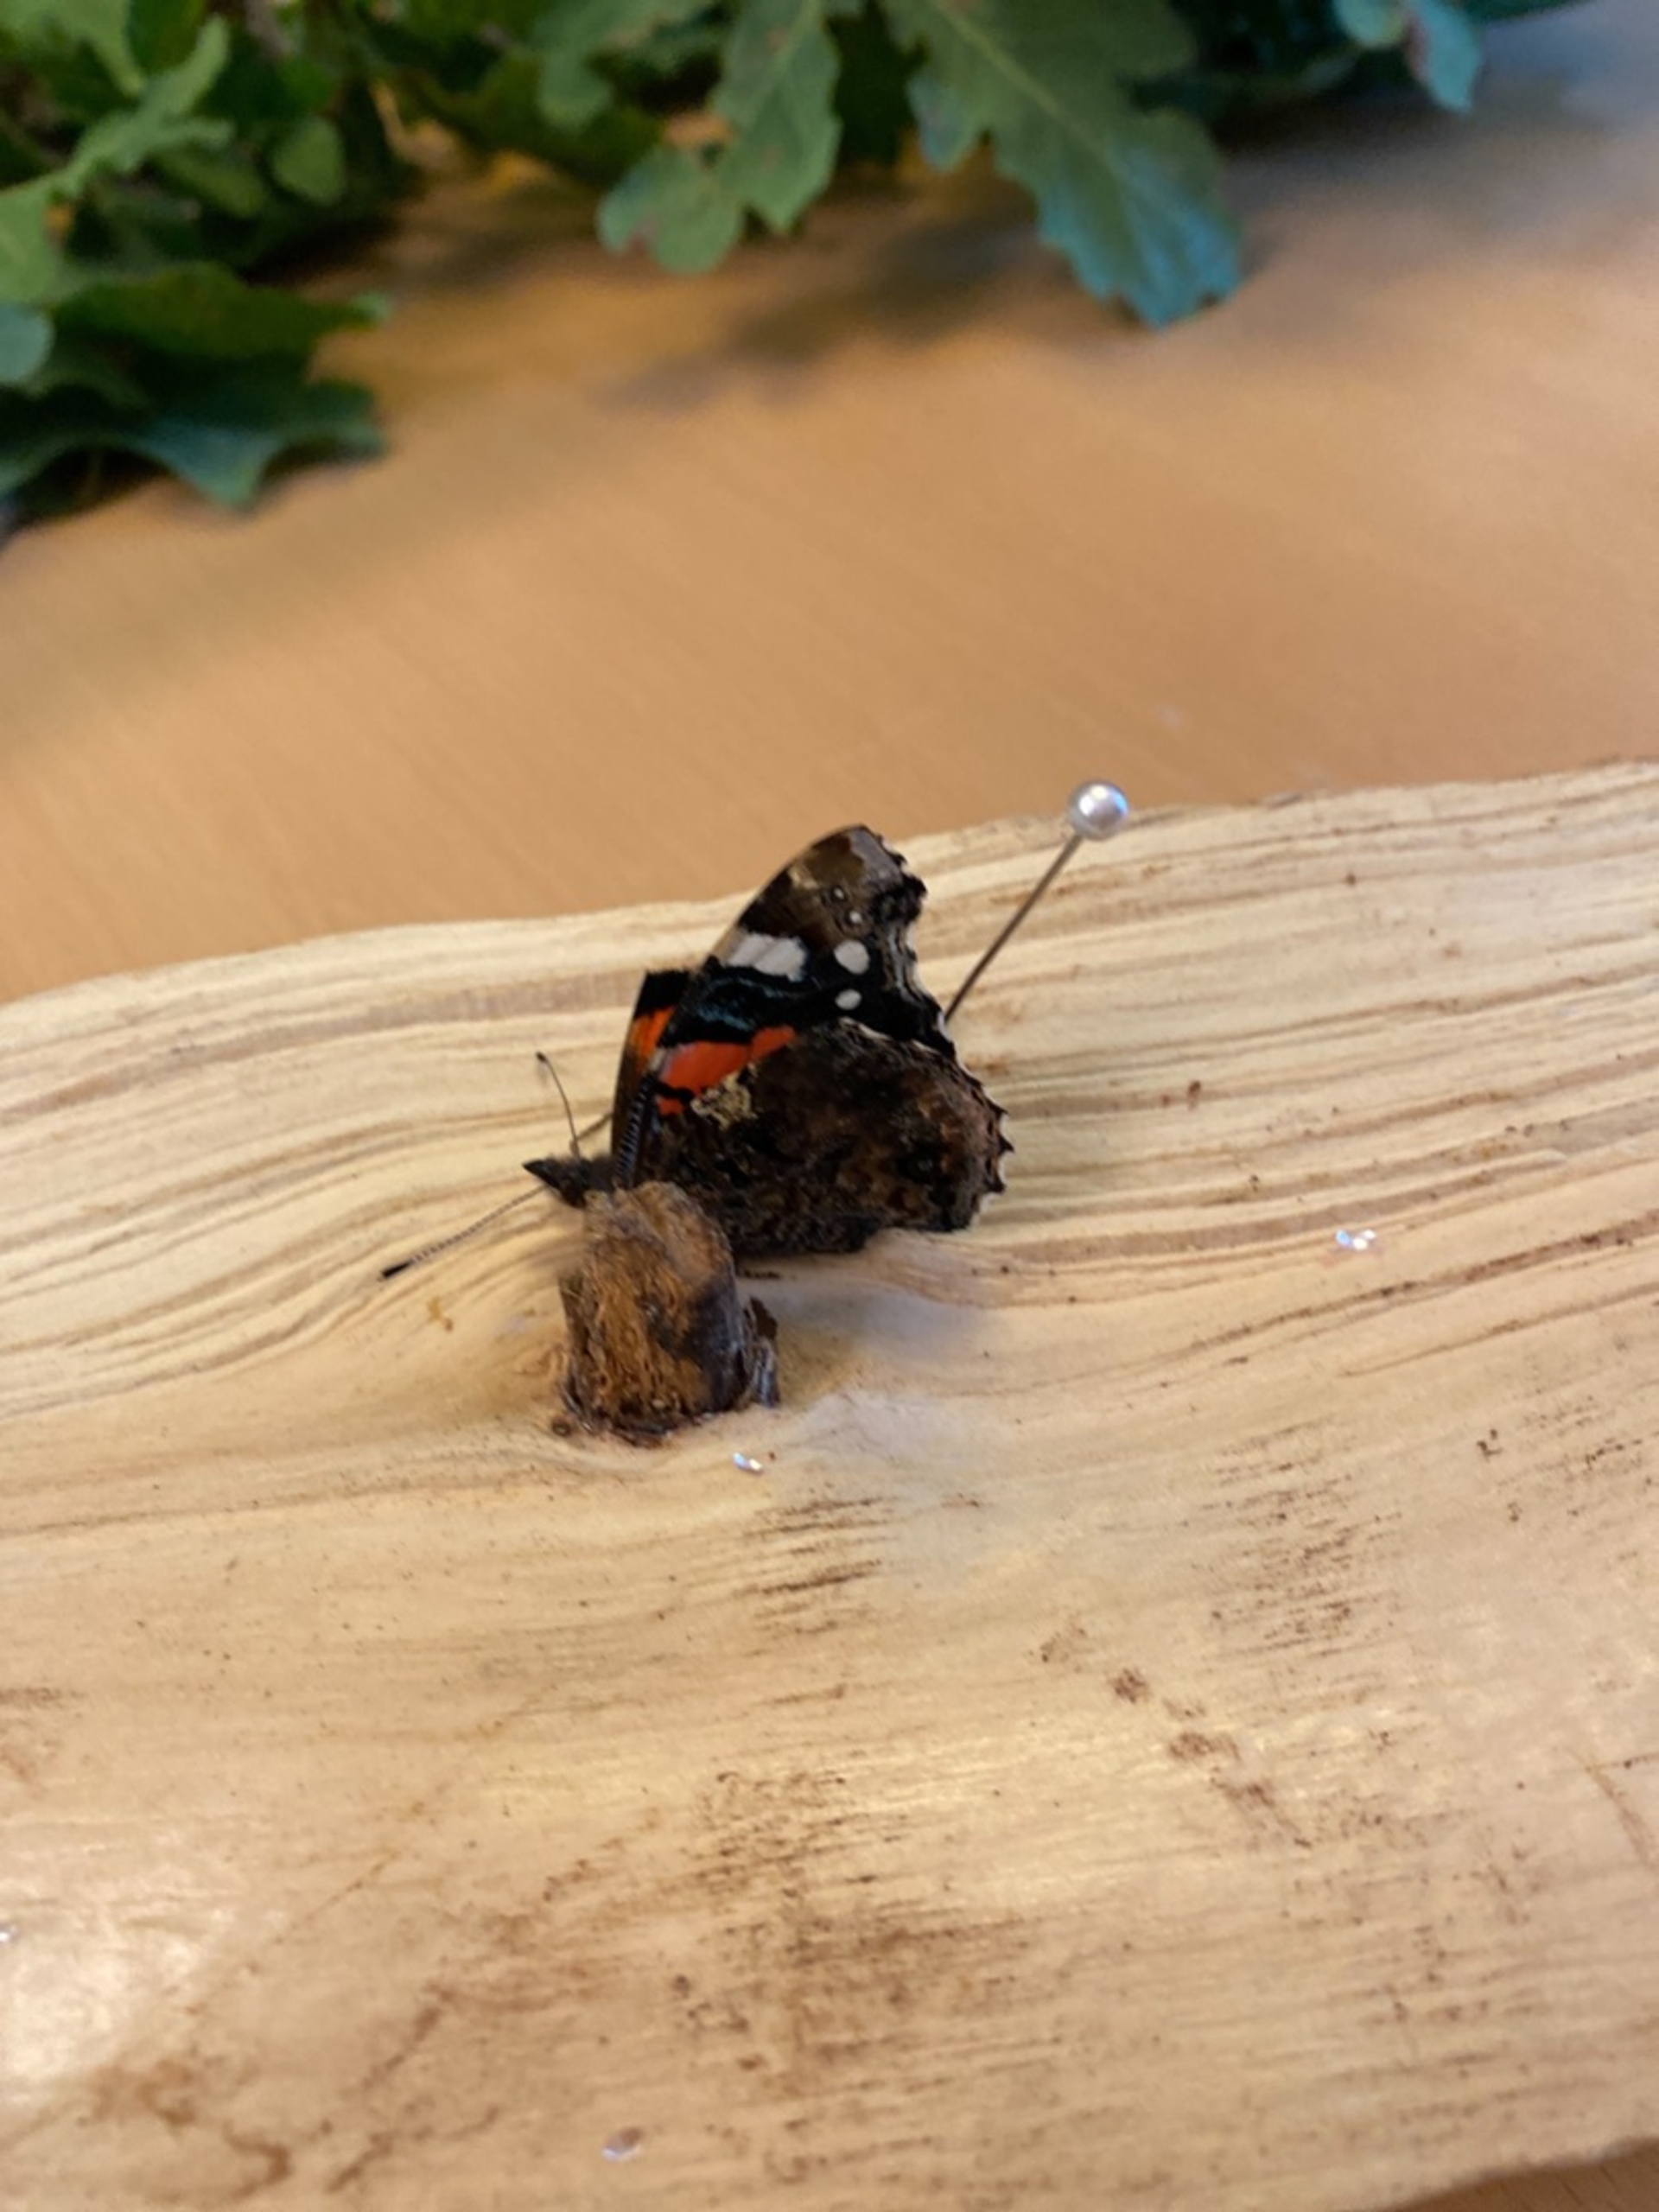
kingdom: Animalia
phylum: Arthropoda
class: Insecta
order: Lepidoptera
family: Nymphalidae
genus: Vanessa
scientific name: Vanessa atalanta
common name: Admiral
